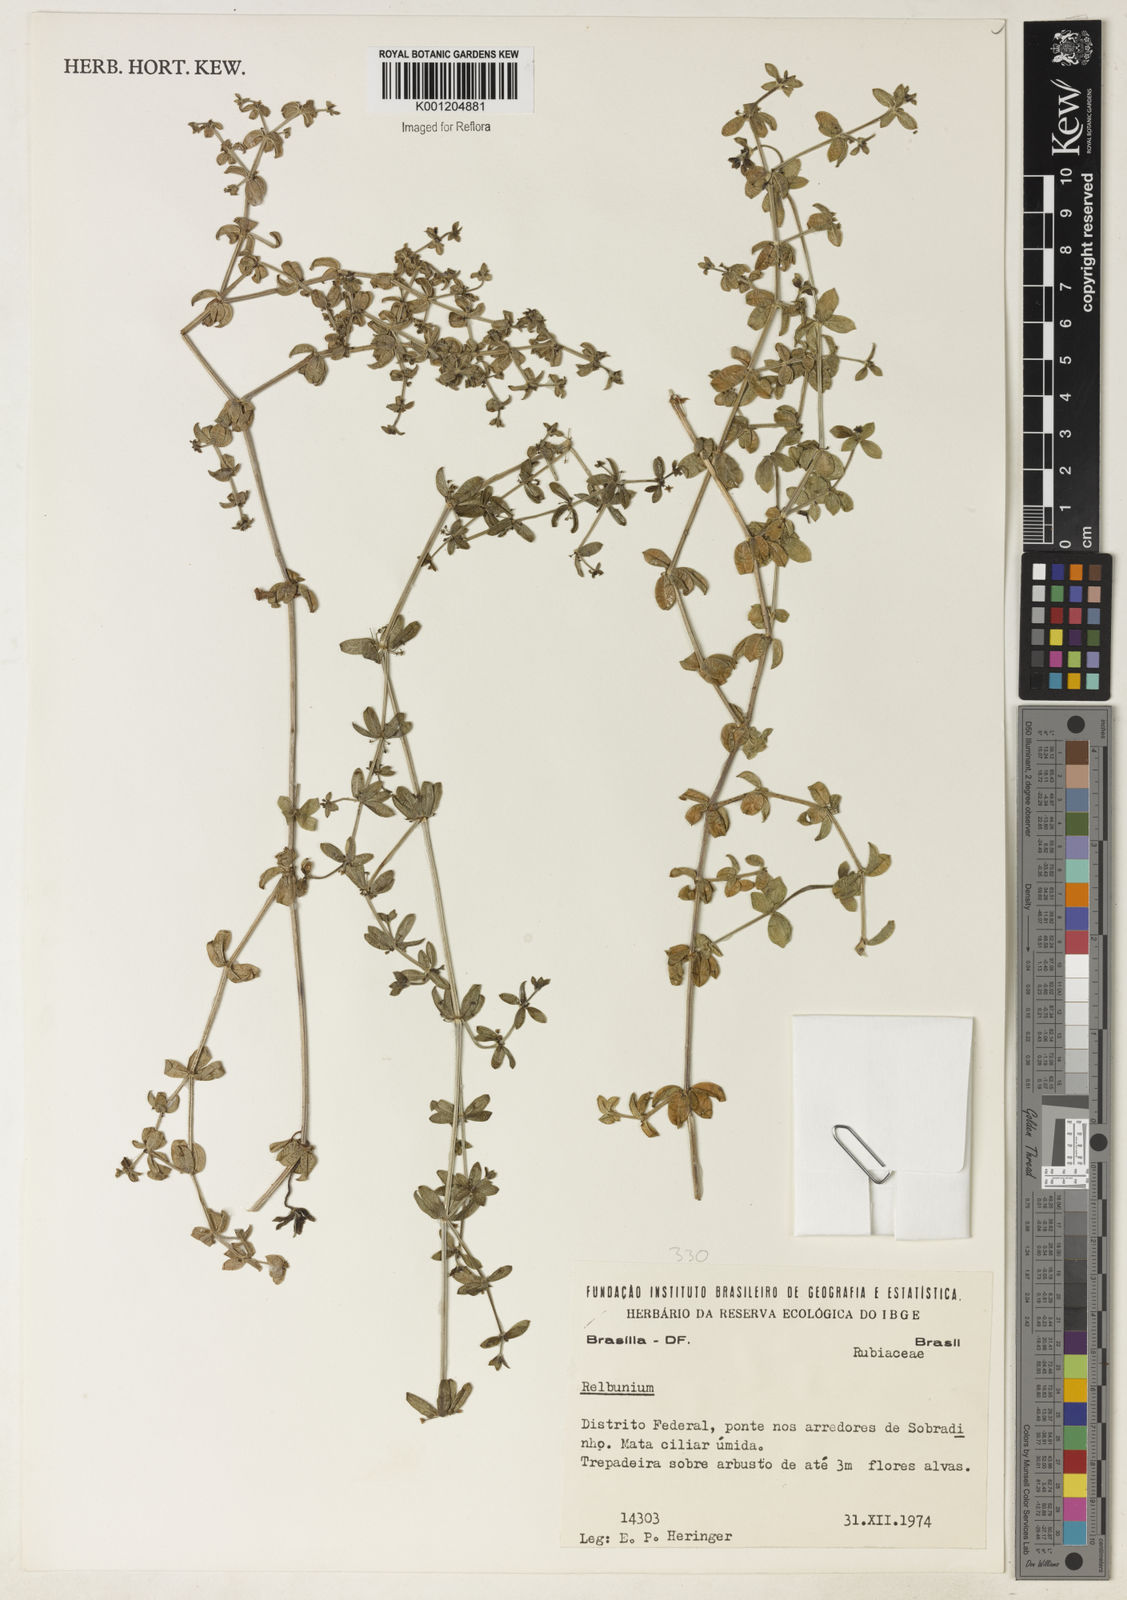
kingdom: Plantae
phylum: Tracheophyta
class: Magnoliopsida
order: Gentianales
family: Rubiaceae
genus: Galium
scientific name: Galium
